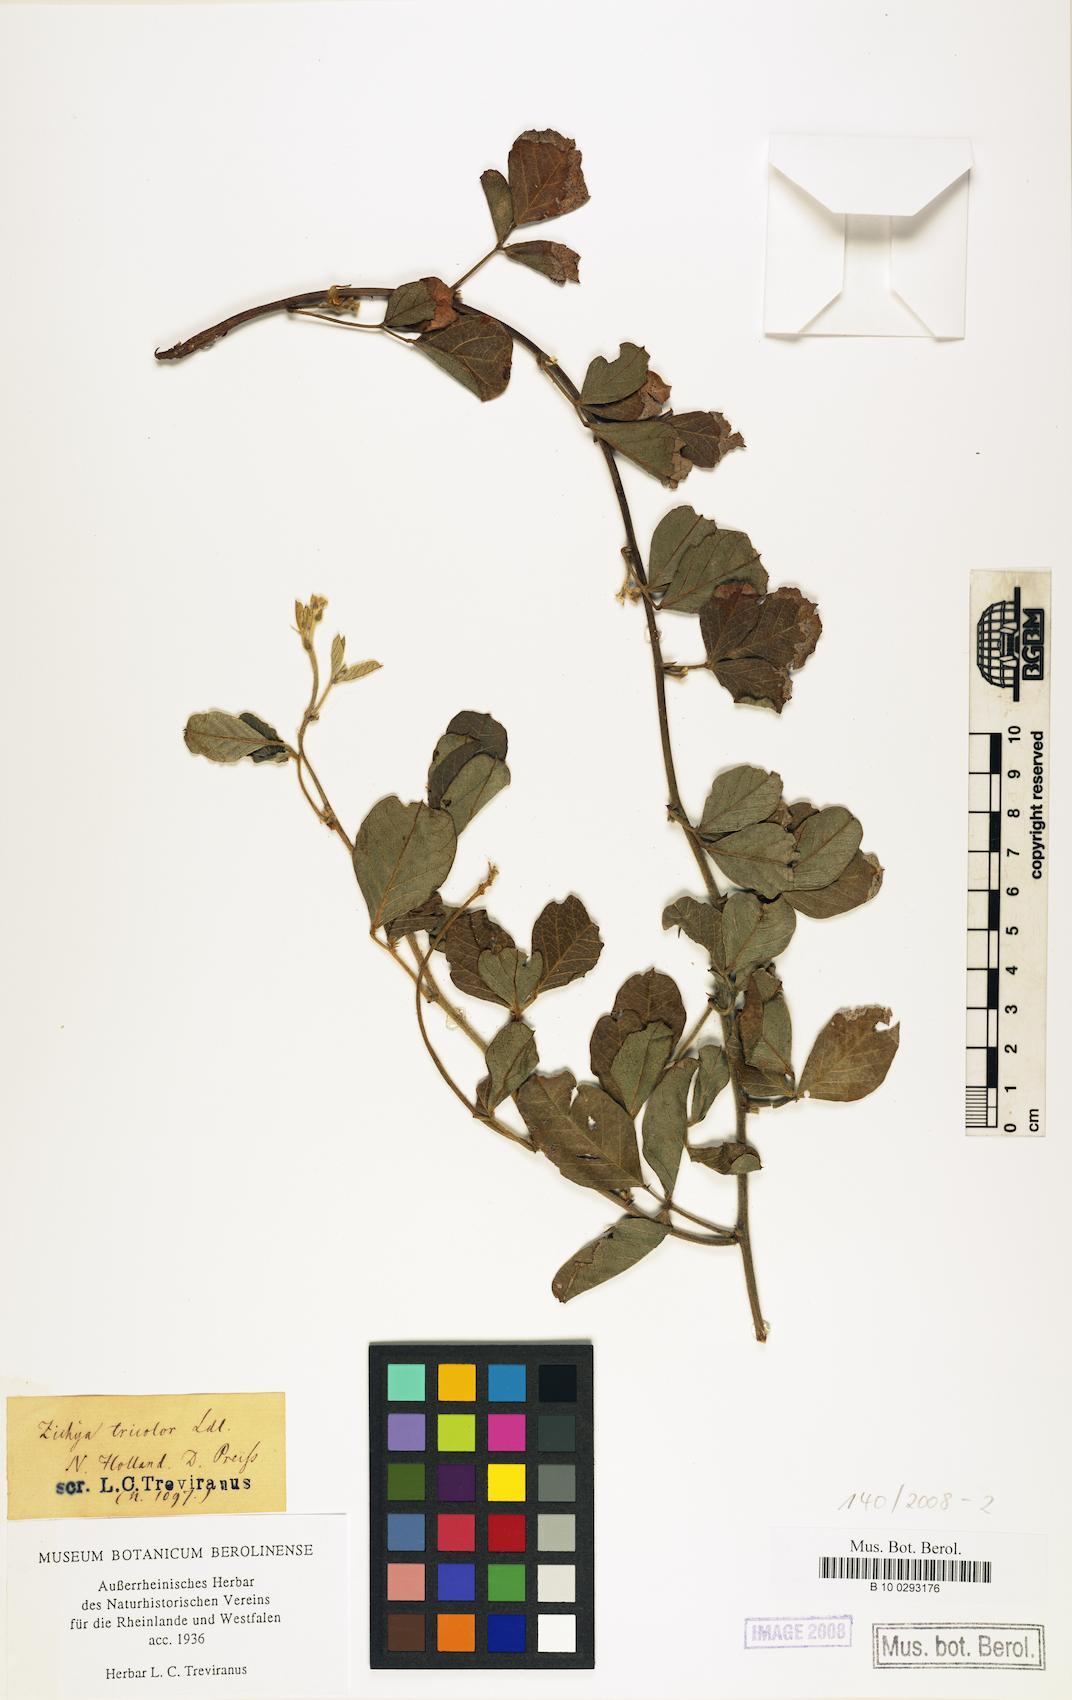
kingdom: Plantae
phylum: Tracheophyta
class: Magnoliopsida
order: Fabales
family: Fabaceae
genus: Kennedia
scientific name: Kennedia coccinea
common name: Coralvine
